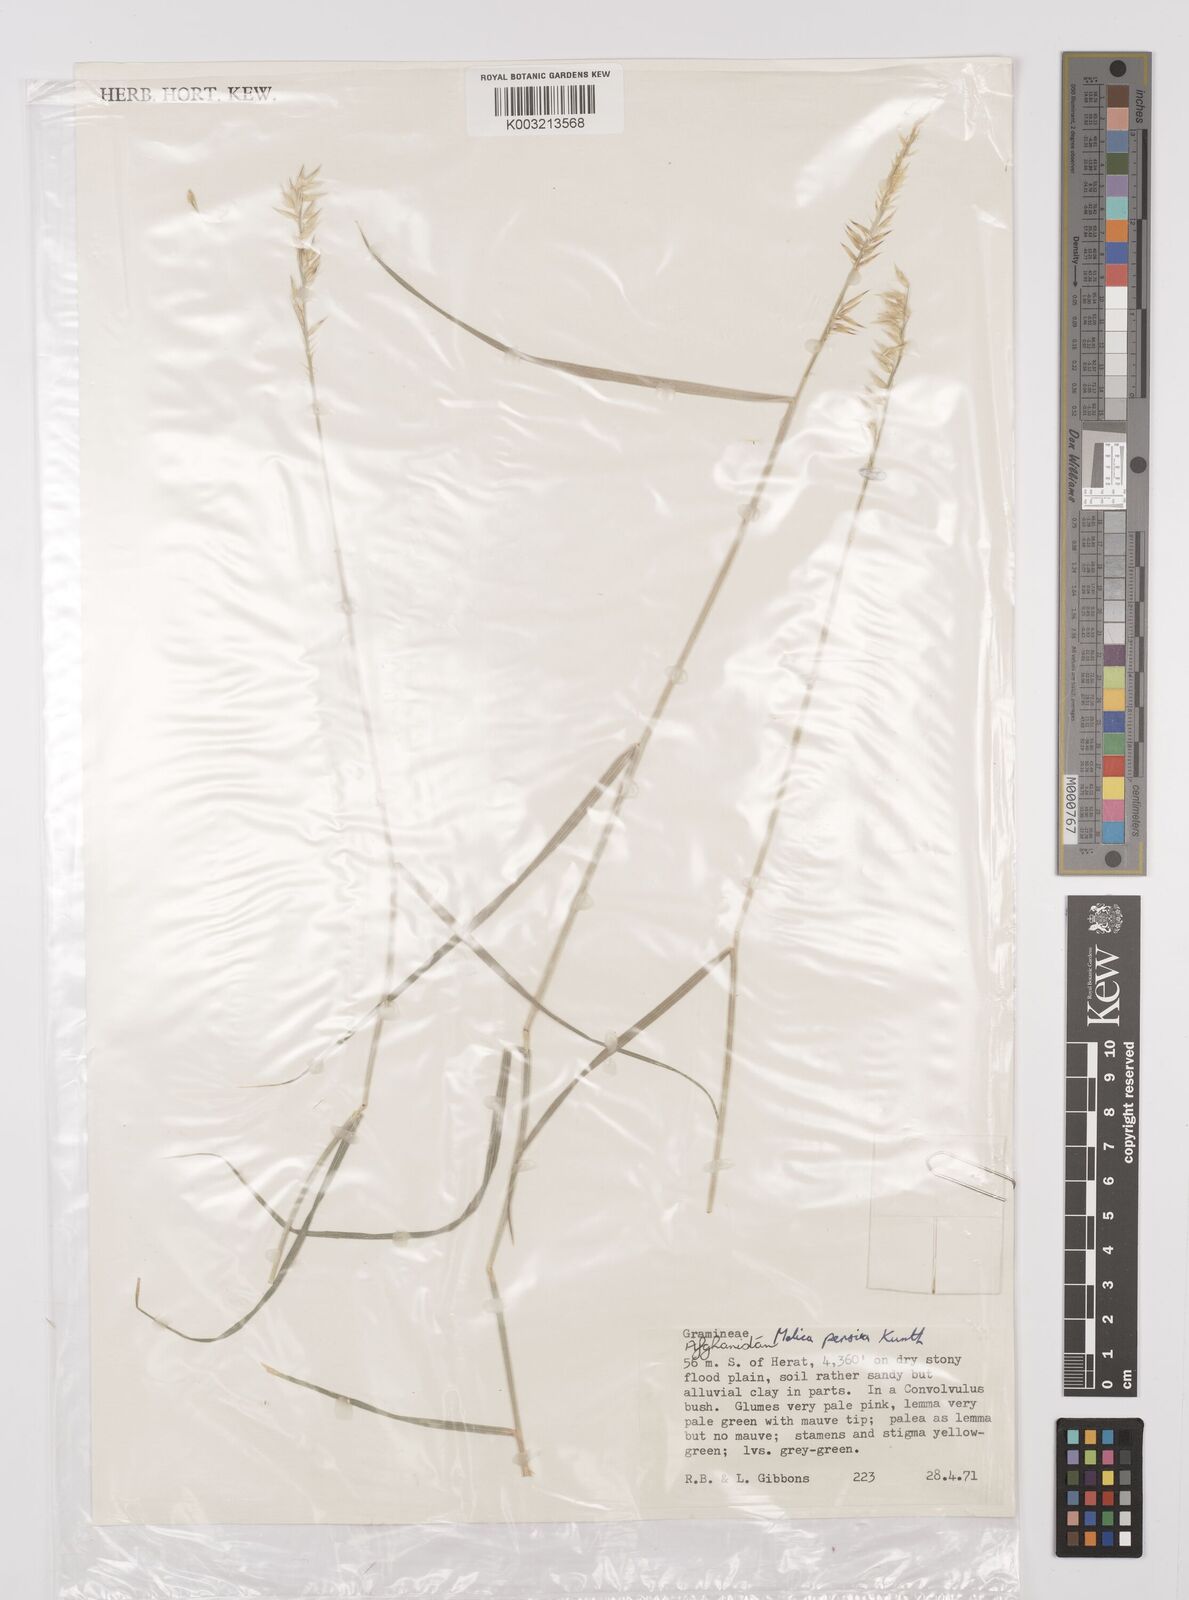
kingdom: Plantae
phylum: Tracheophyta
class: Liliopsida
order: Poales
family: Poaceae
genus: Melica
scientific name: Melica persica
